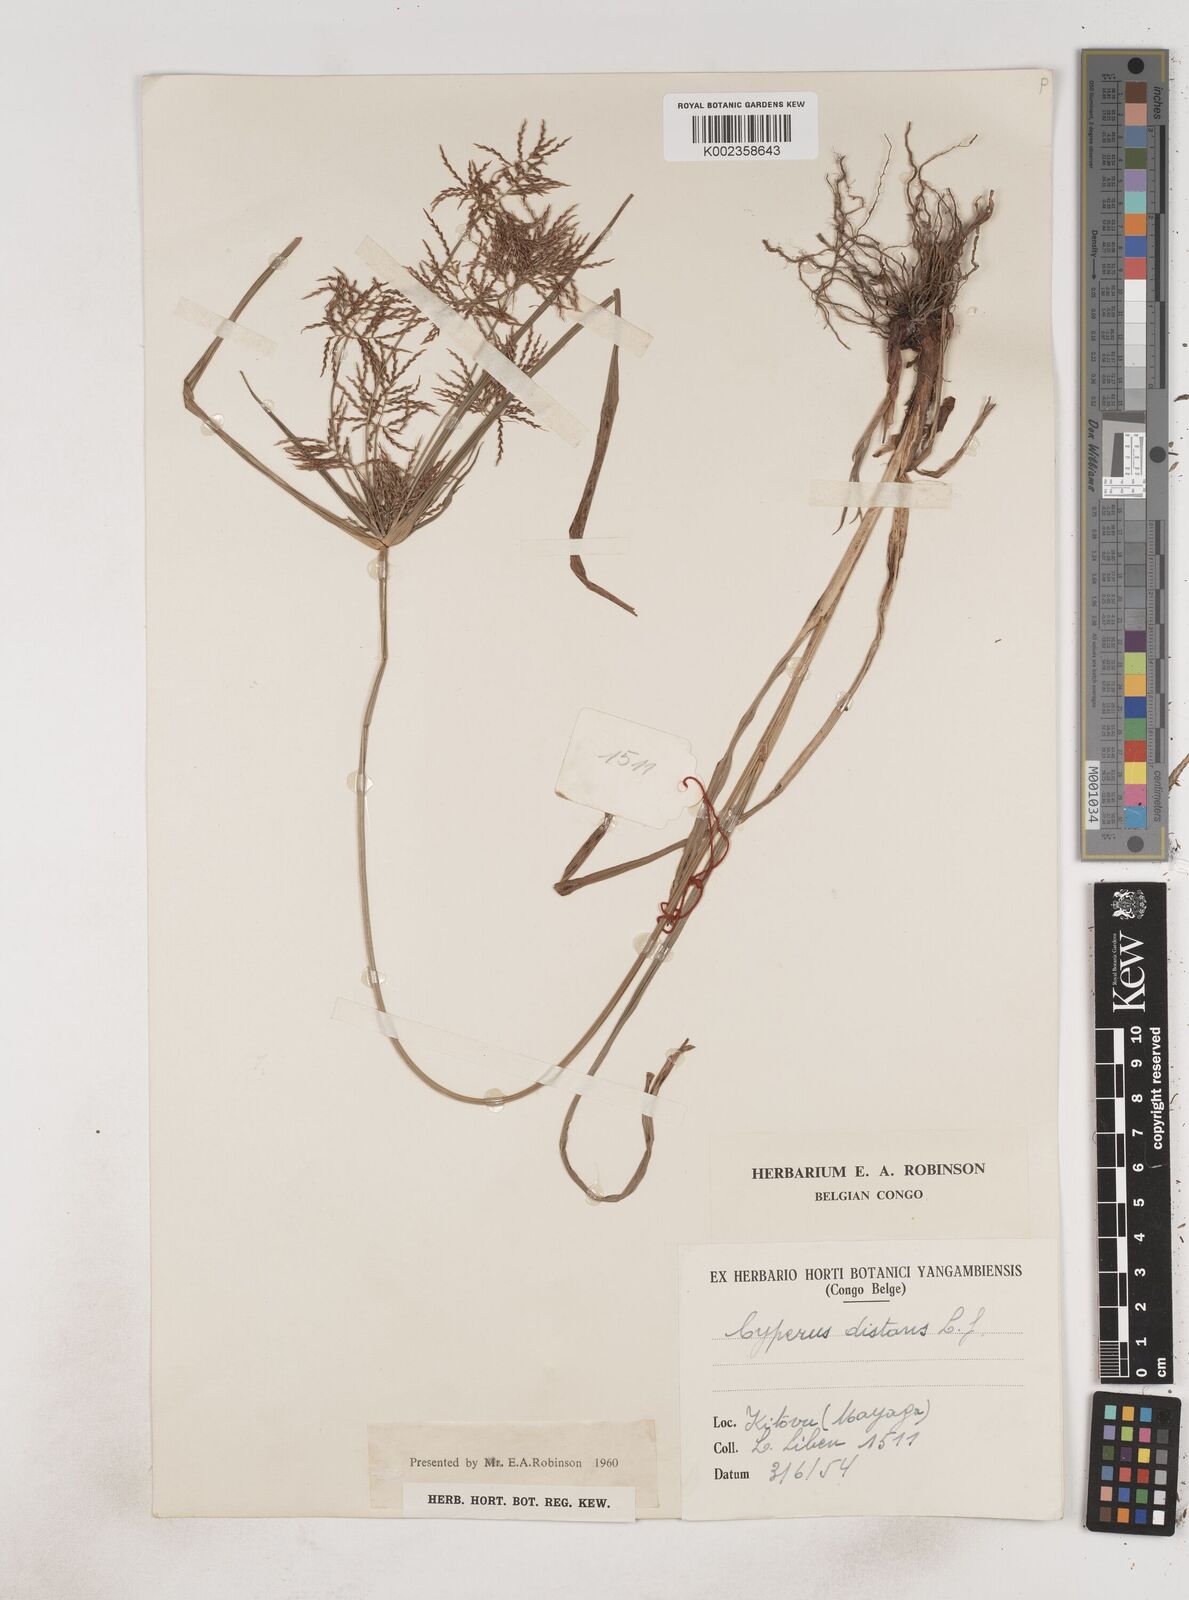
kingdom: Plantae
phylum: Tracheophyta
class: Liliopsida
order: Poales
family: Cyperaceae
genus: Cyperus
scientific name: Cyperus distans
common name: Slender cyperus
